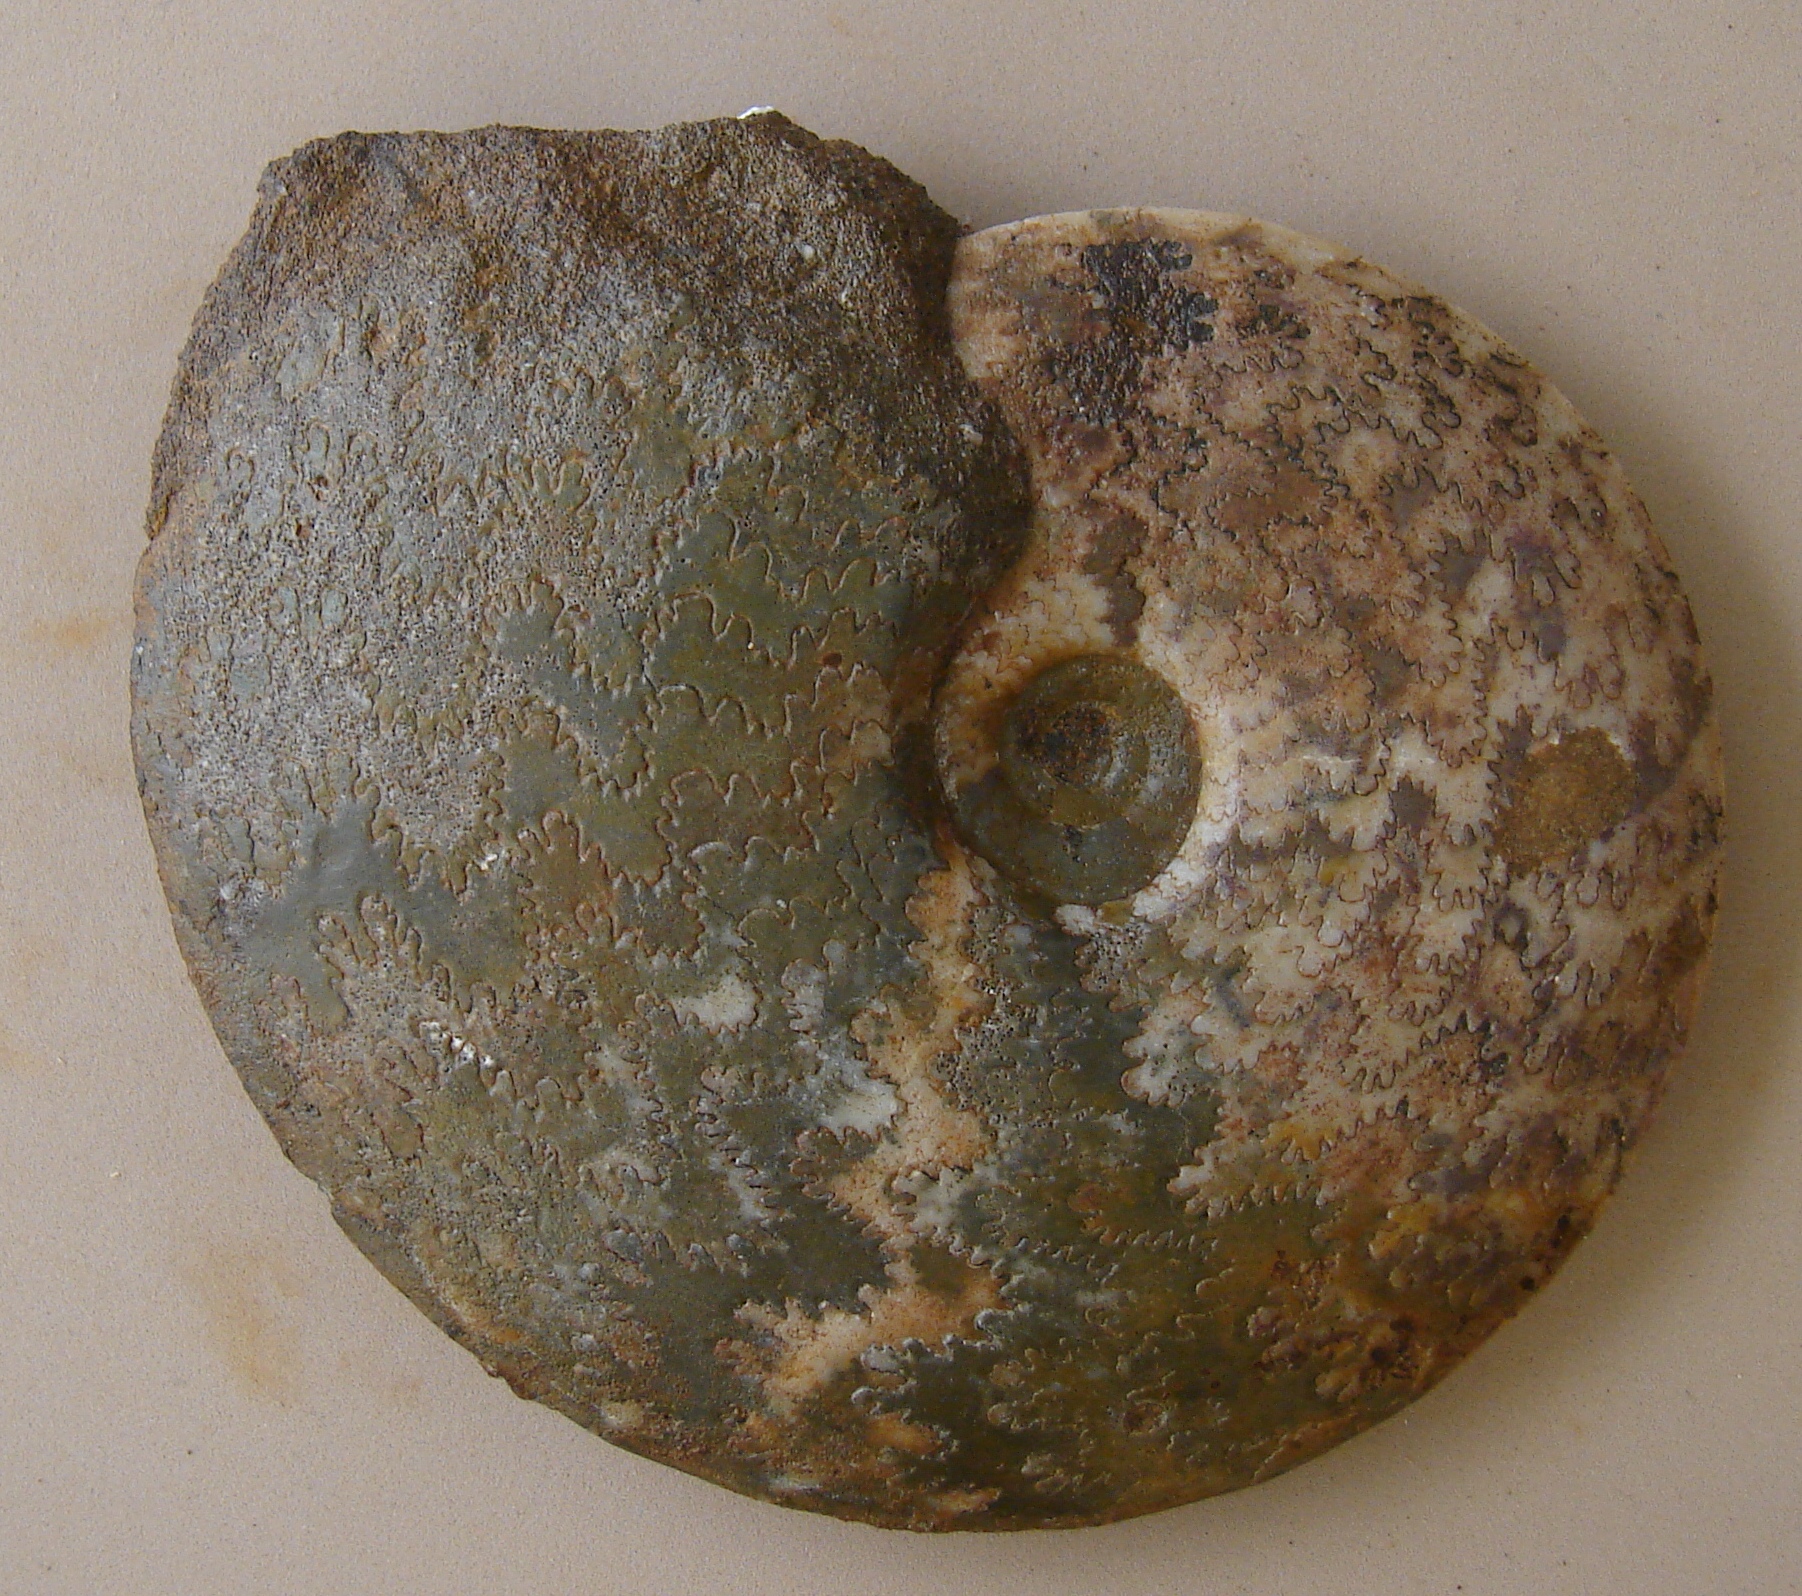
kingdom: Protozoa
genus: Huddlestonia
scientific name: Huddlestonia
